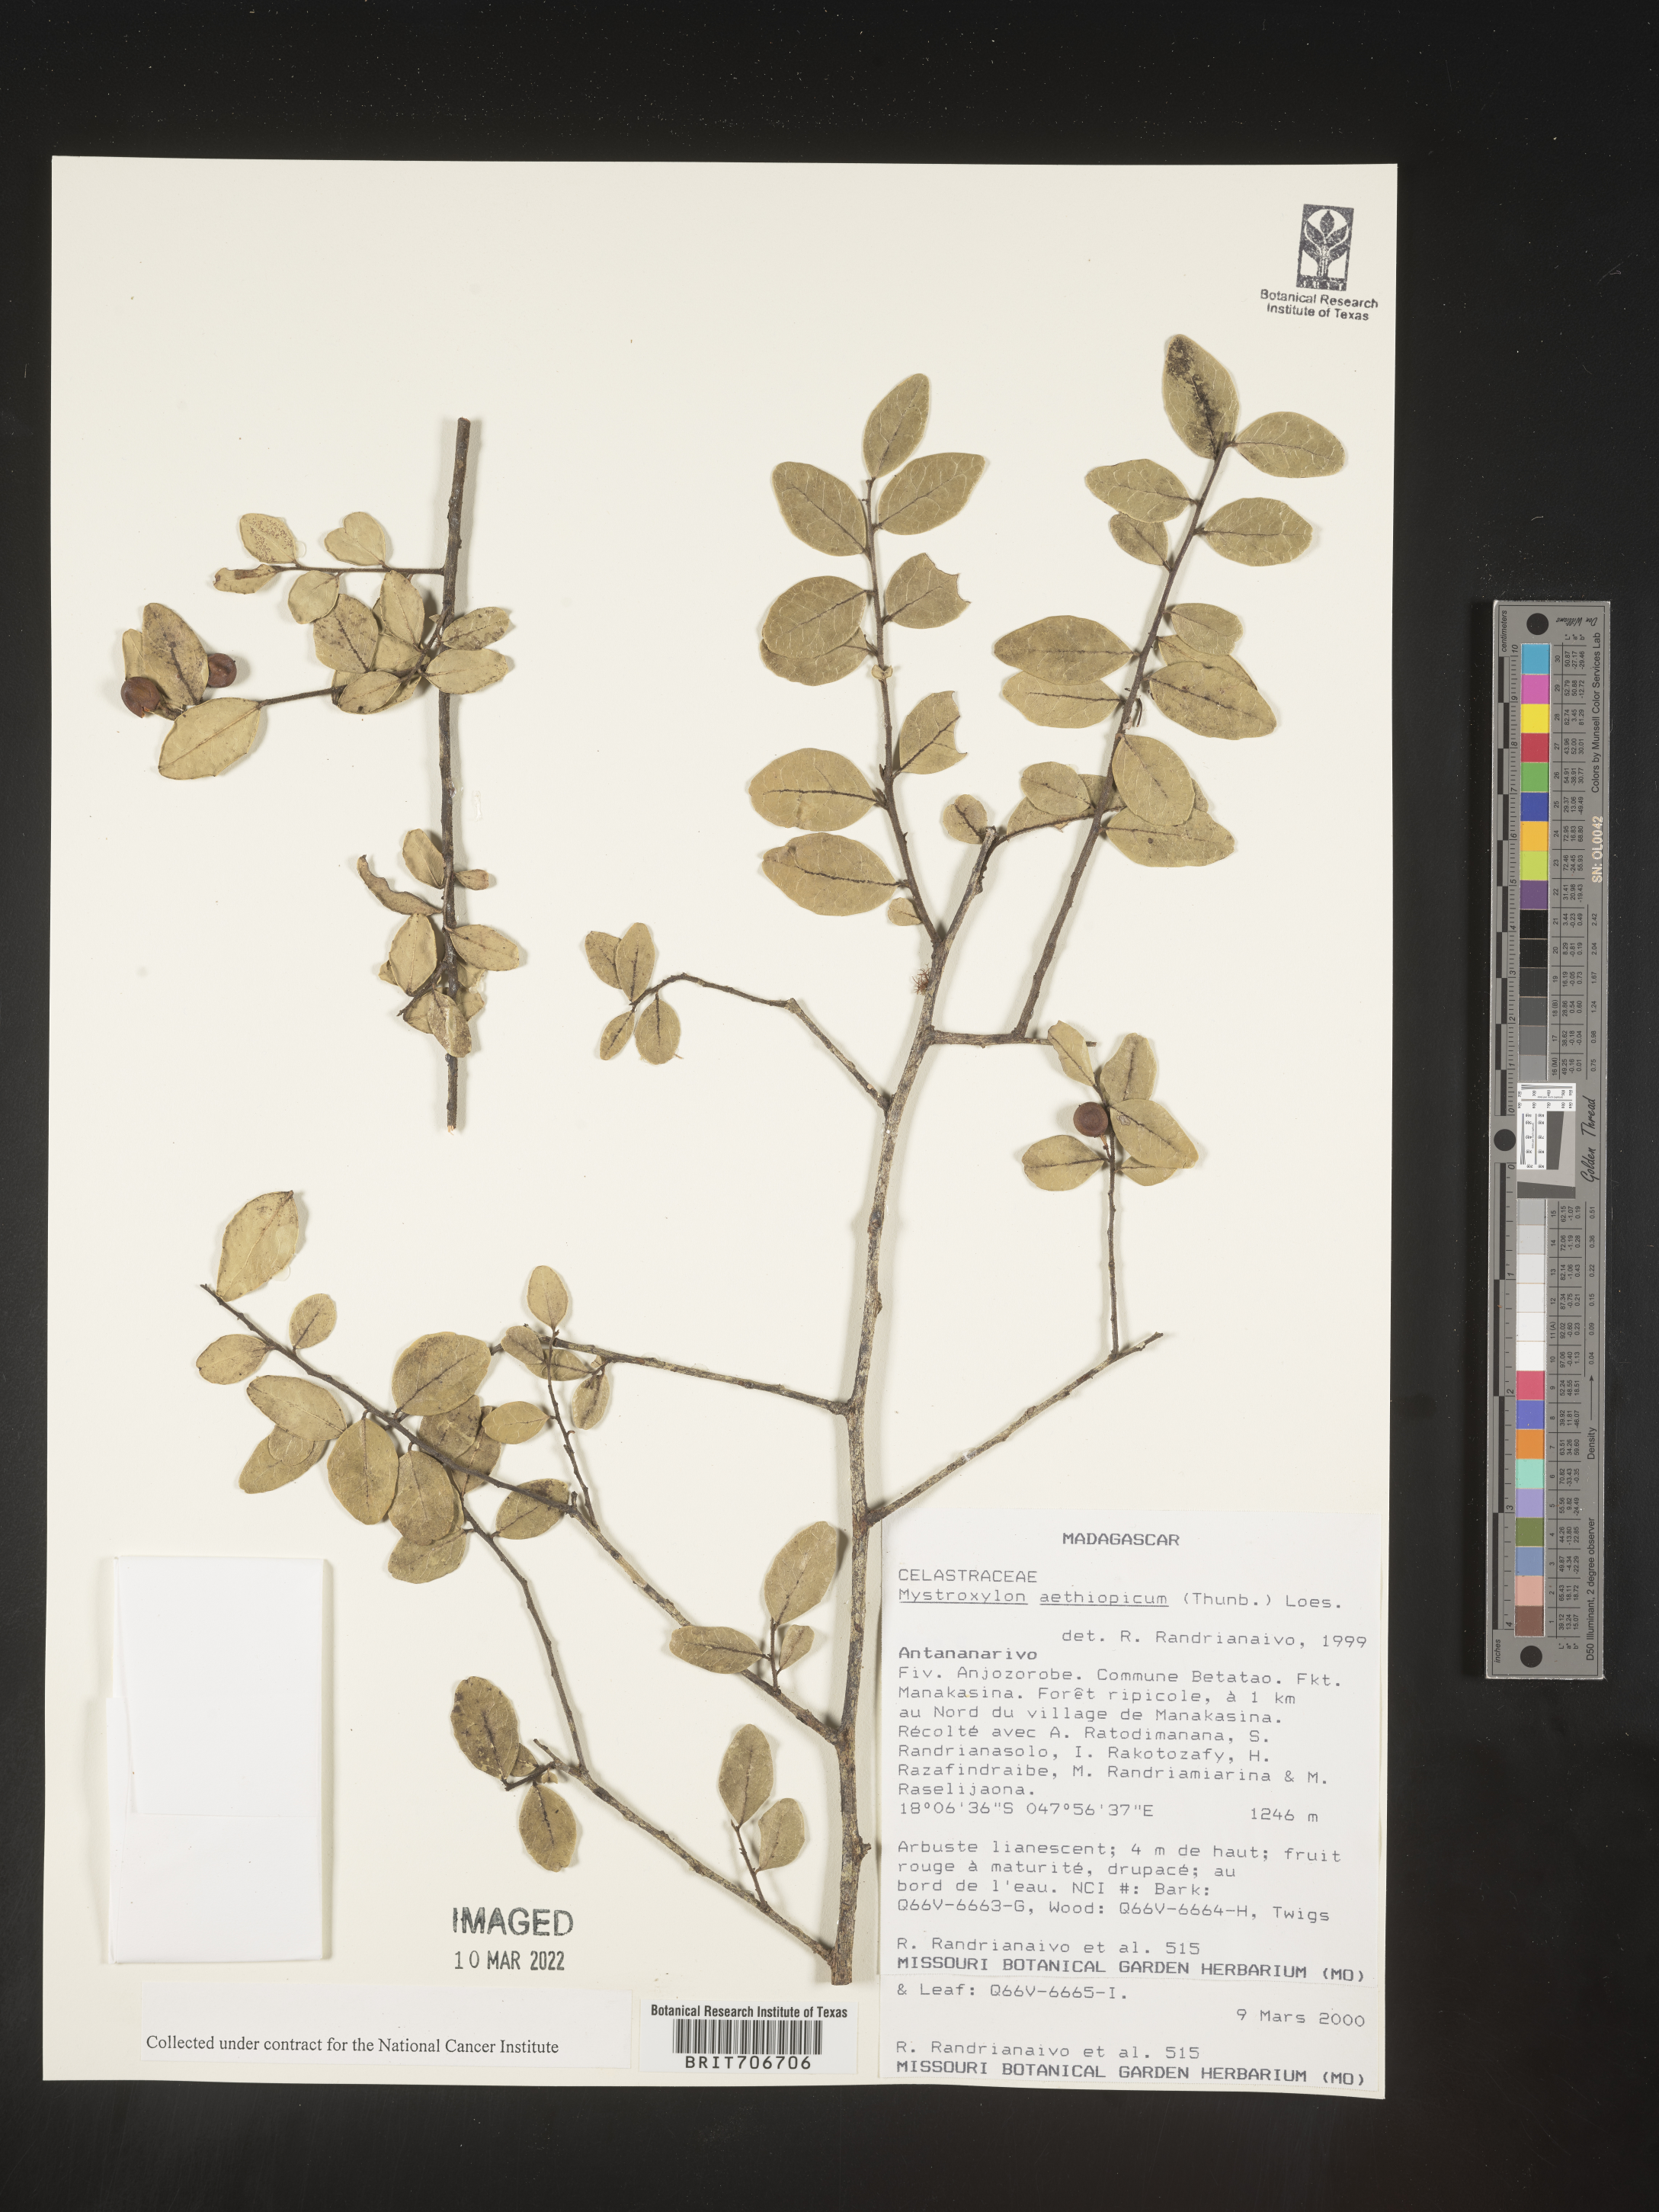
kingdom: Plantae
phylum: Tracheophyta
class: Magnoliopsida
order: Celastrales
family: Celastraceae
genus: Mystroxylon
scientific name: Mystroxylon
